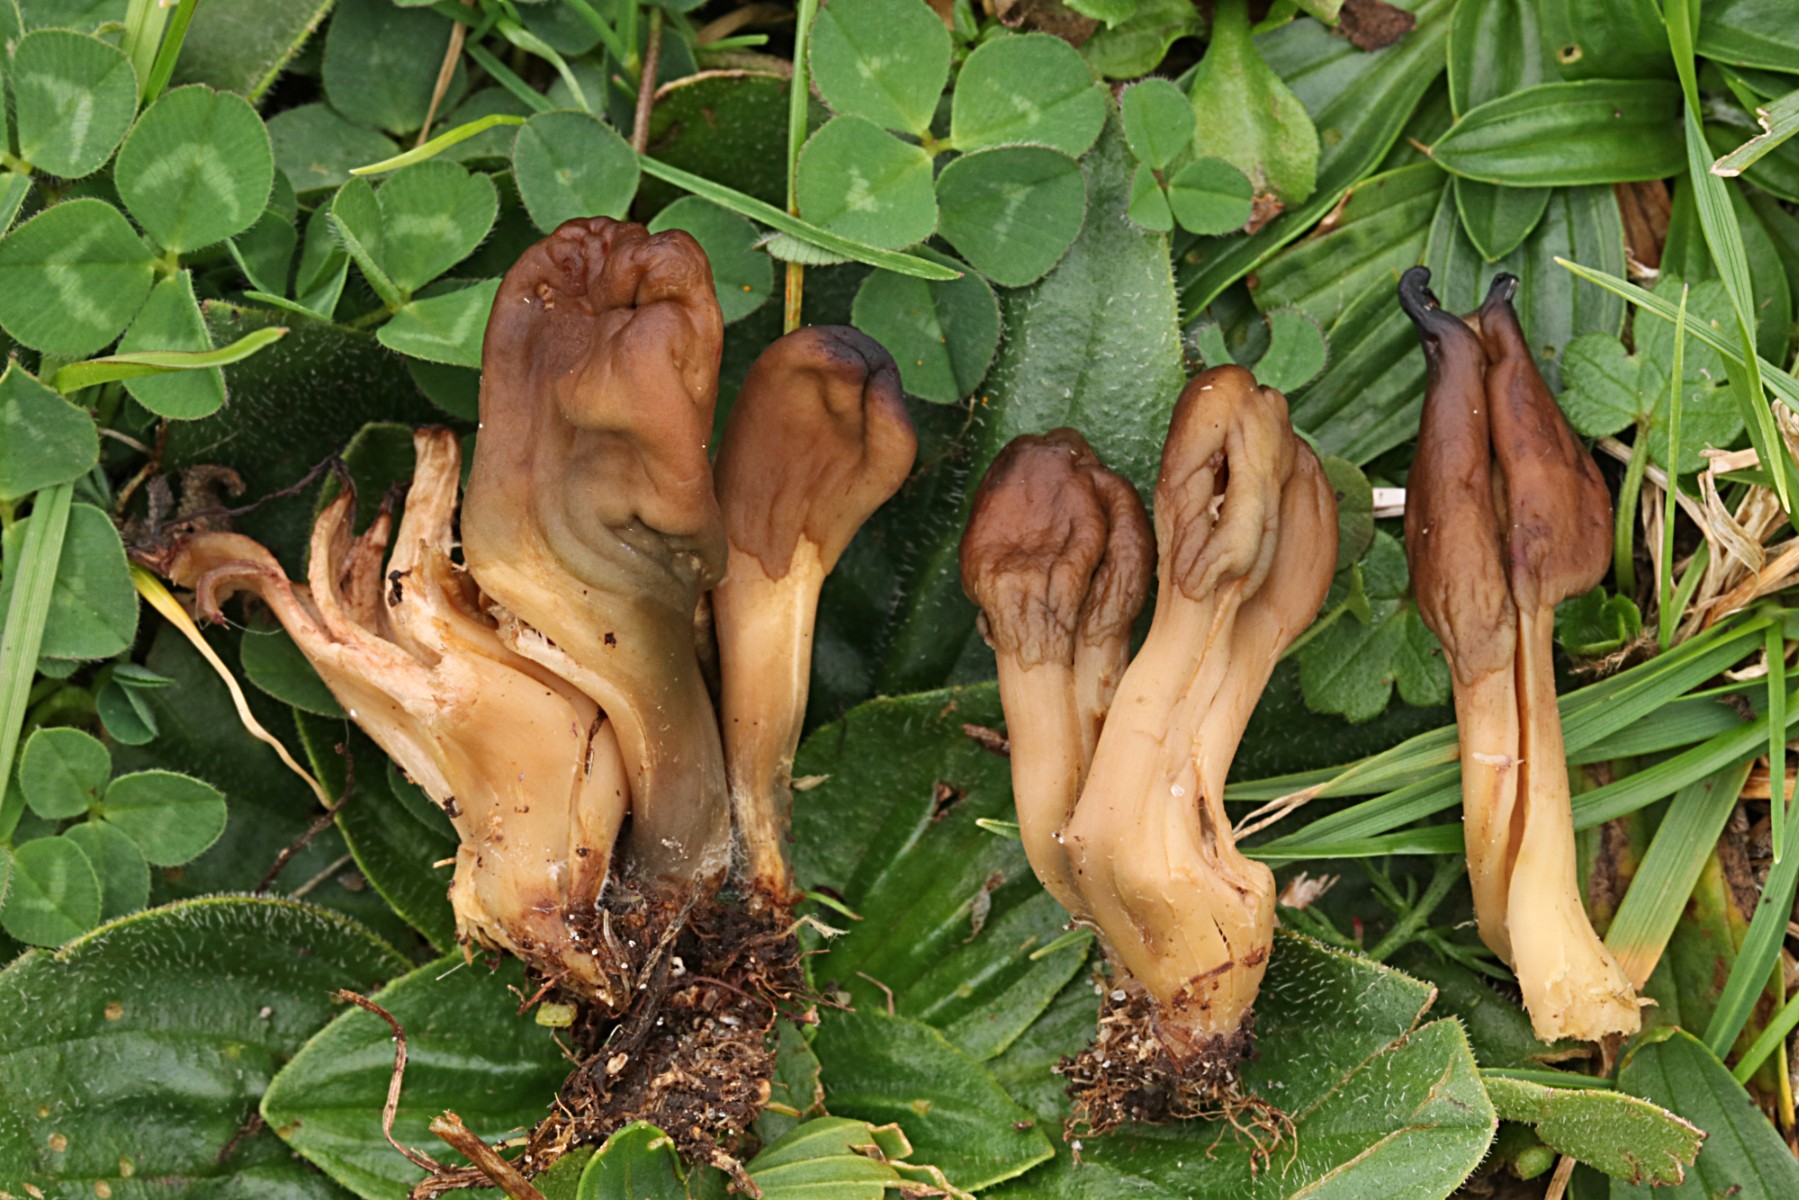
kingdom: Fungi
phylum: Ascomycota
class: Leotiomycetes
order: Leotiales
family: Leotiaceae
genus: Microglossum
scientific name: Microglossum olivaceum
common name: olivenbrun farvetunge
